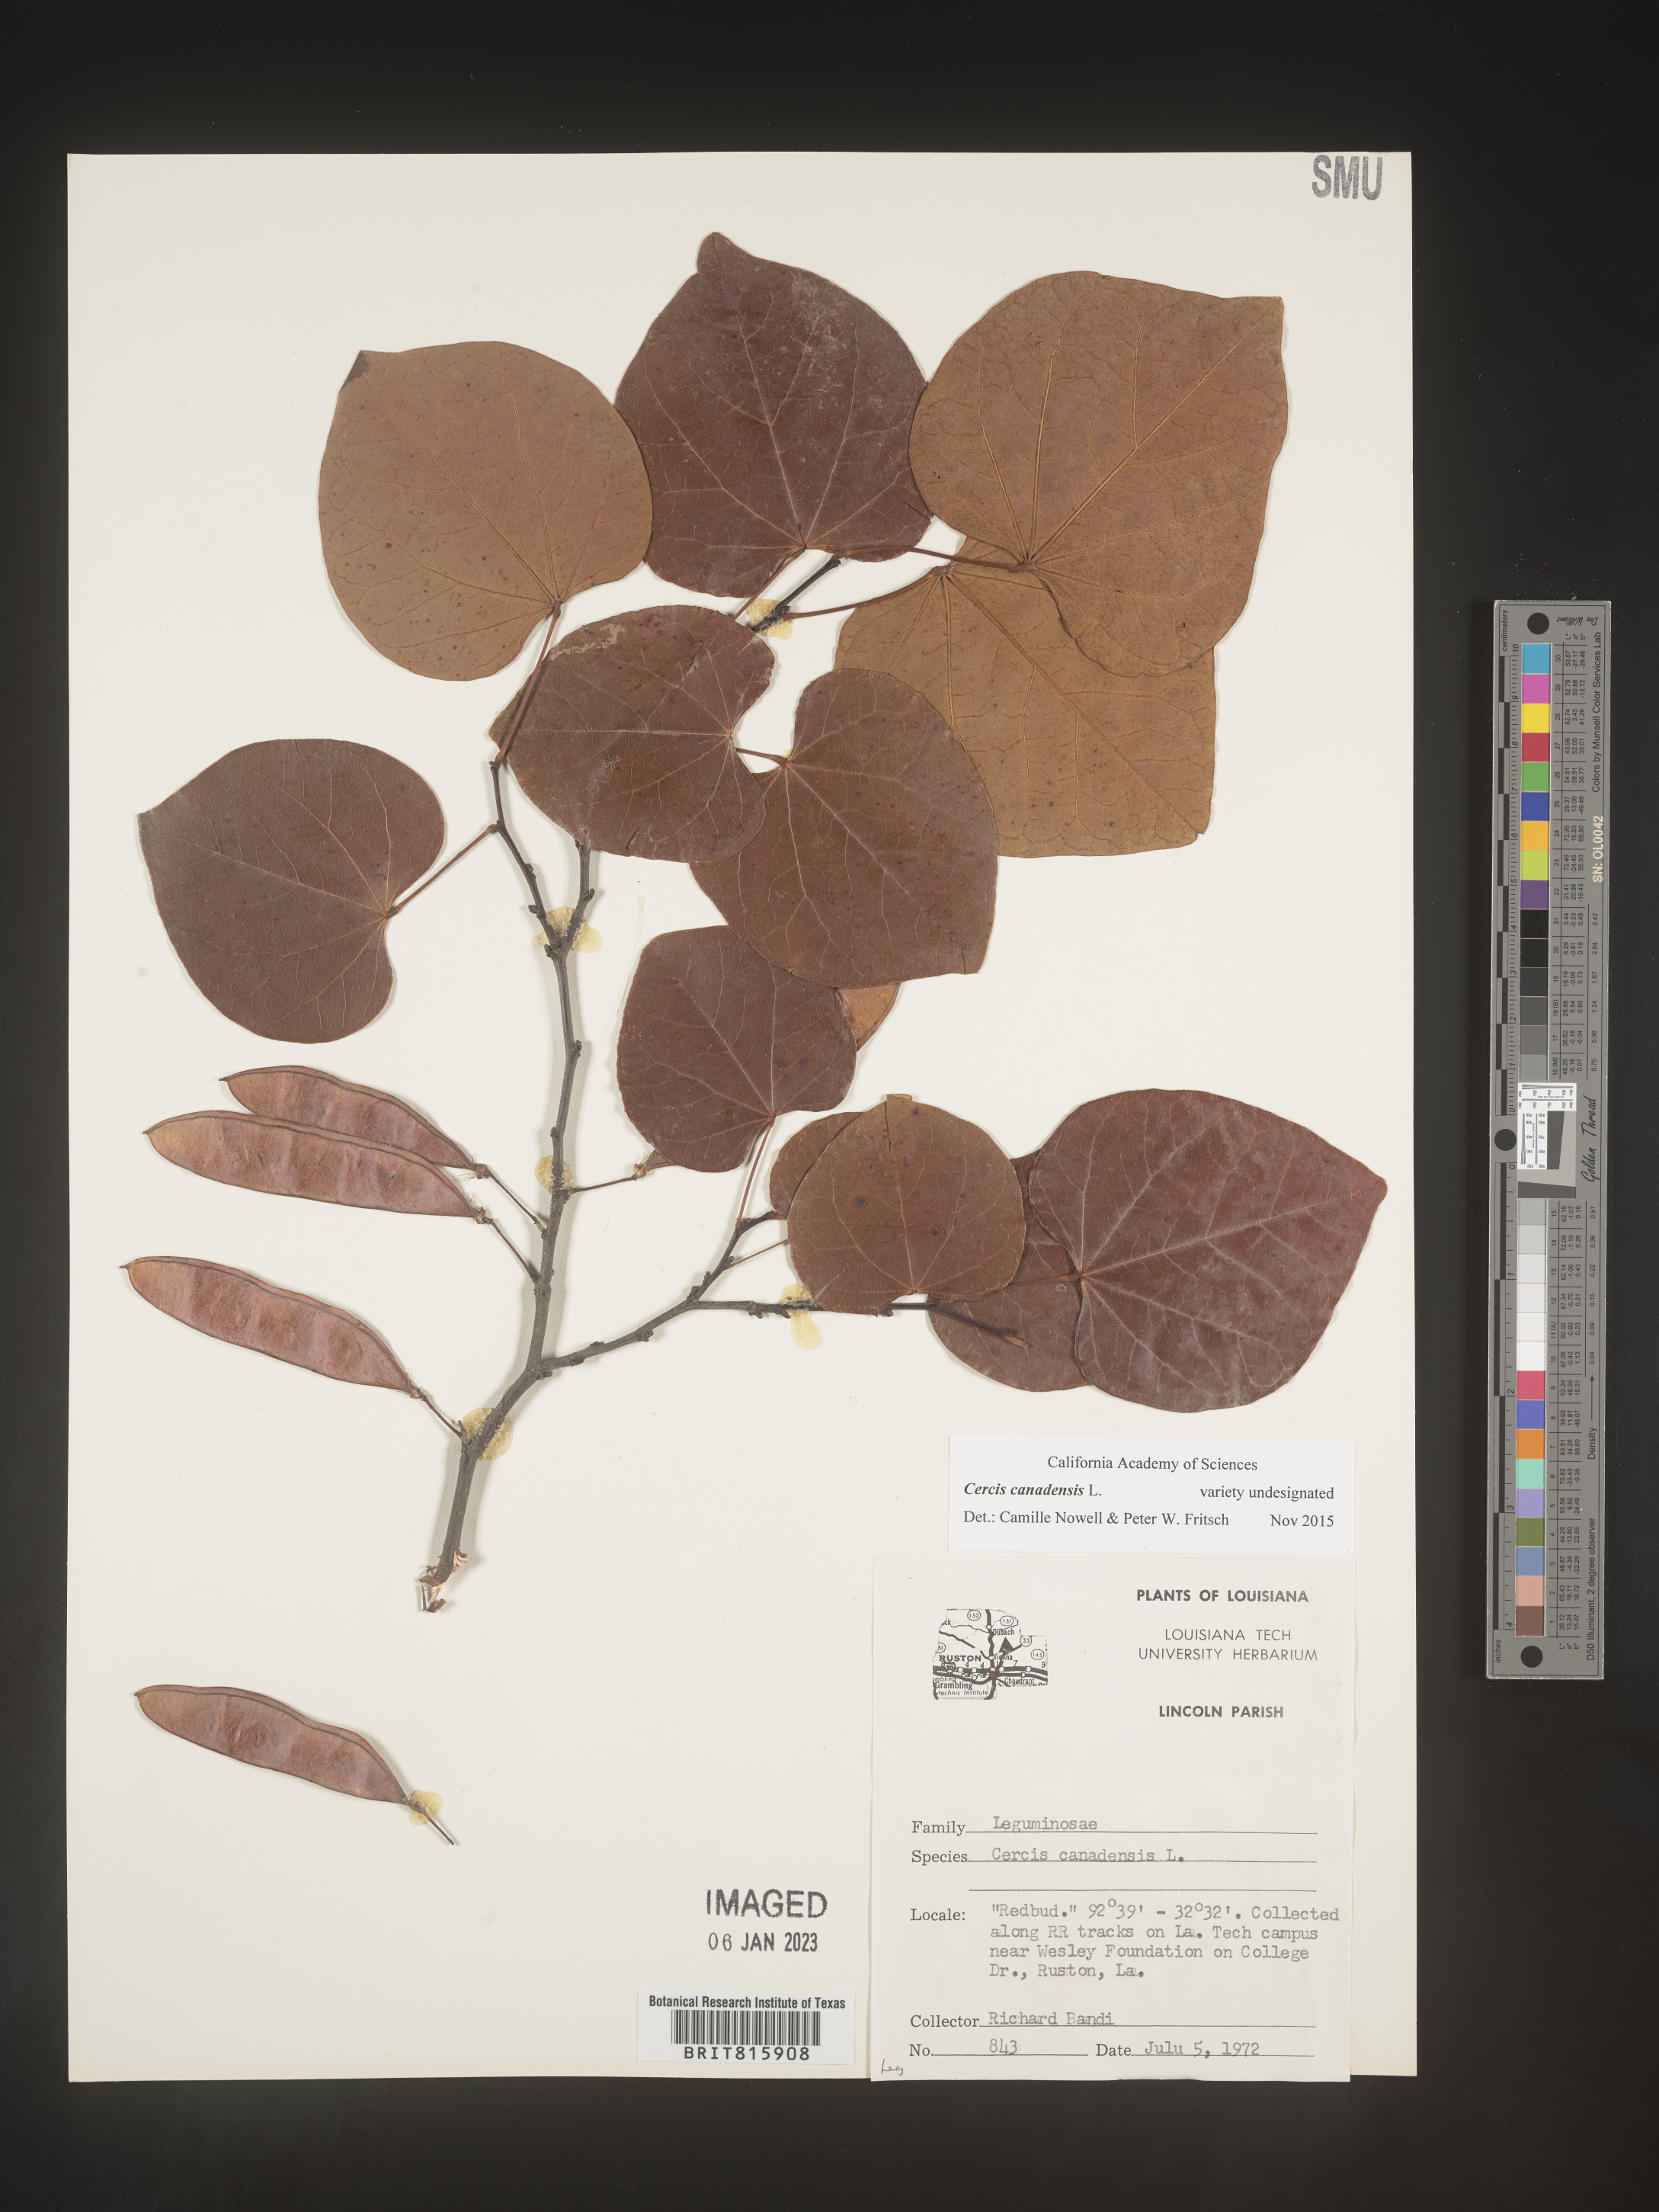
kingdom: Plantae
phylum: Tracheophyta
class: Magnoliopsida
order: Fabales
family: Fabaceae
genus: Cercis
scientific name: Cercis canadensis
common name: Eastern redbud
